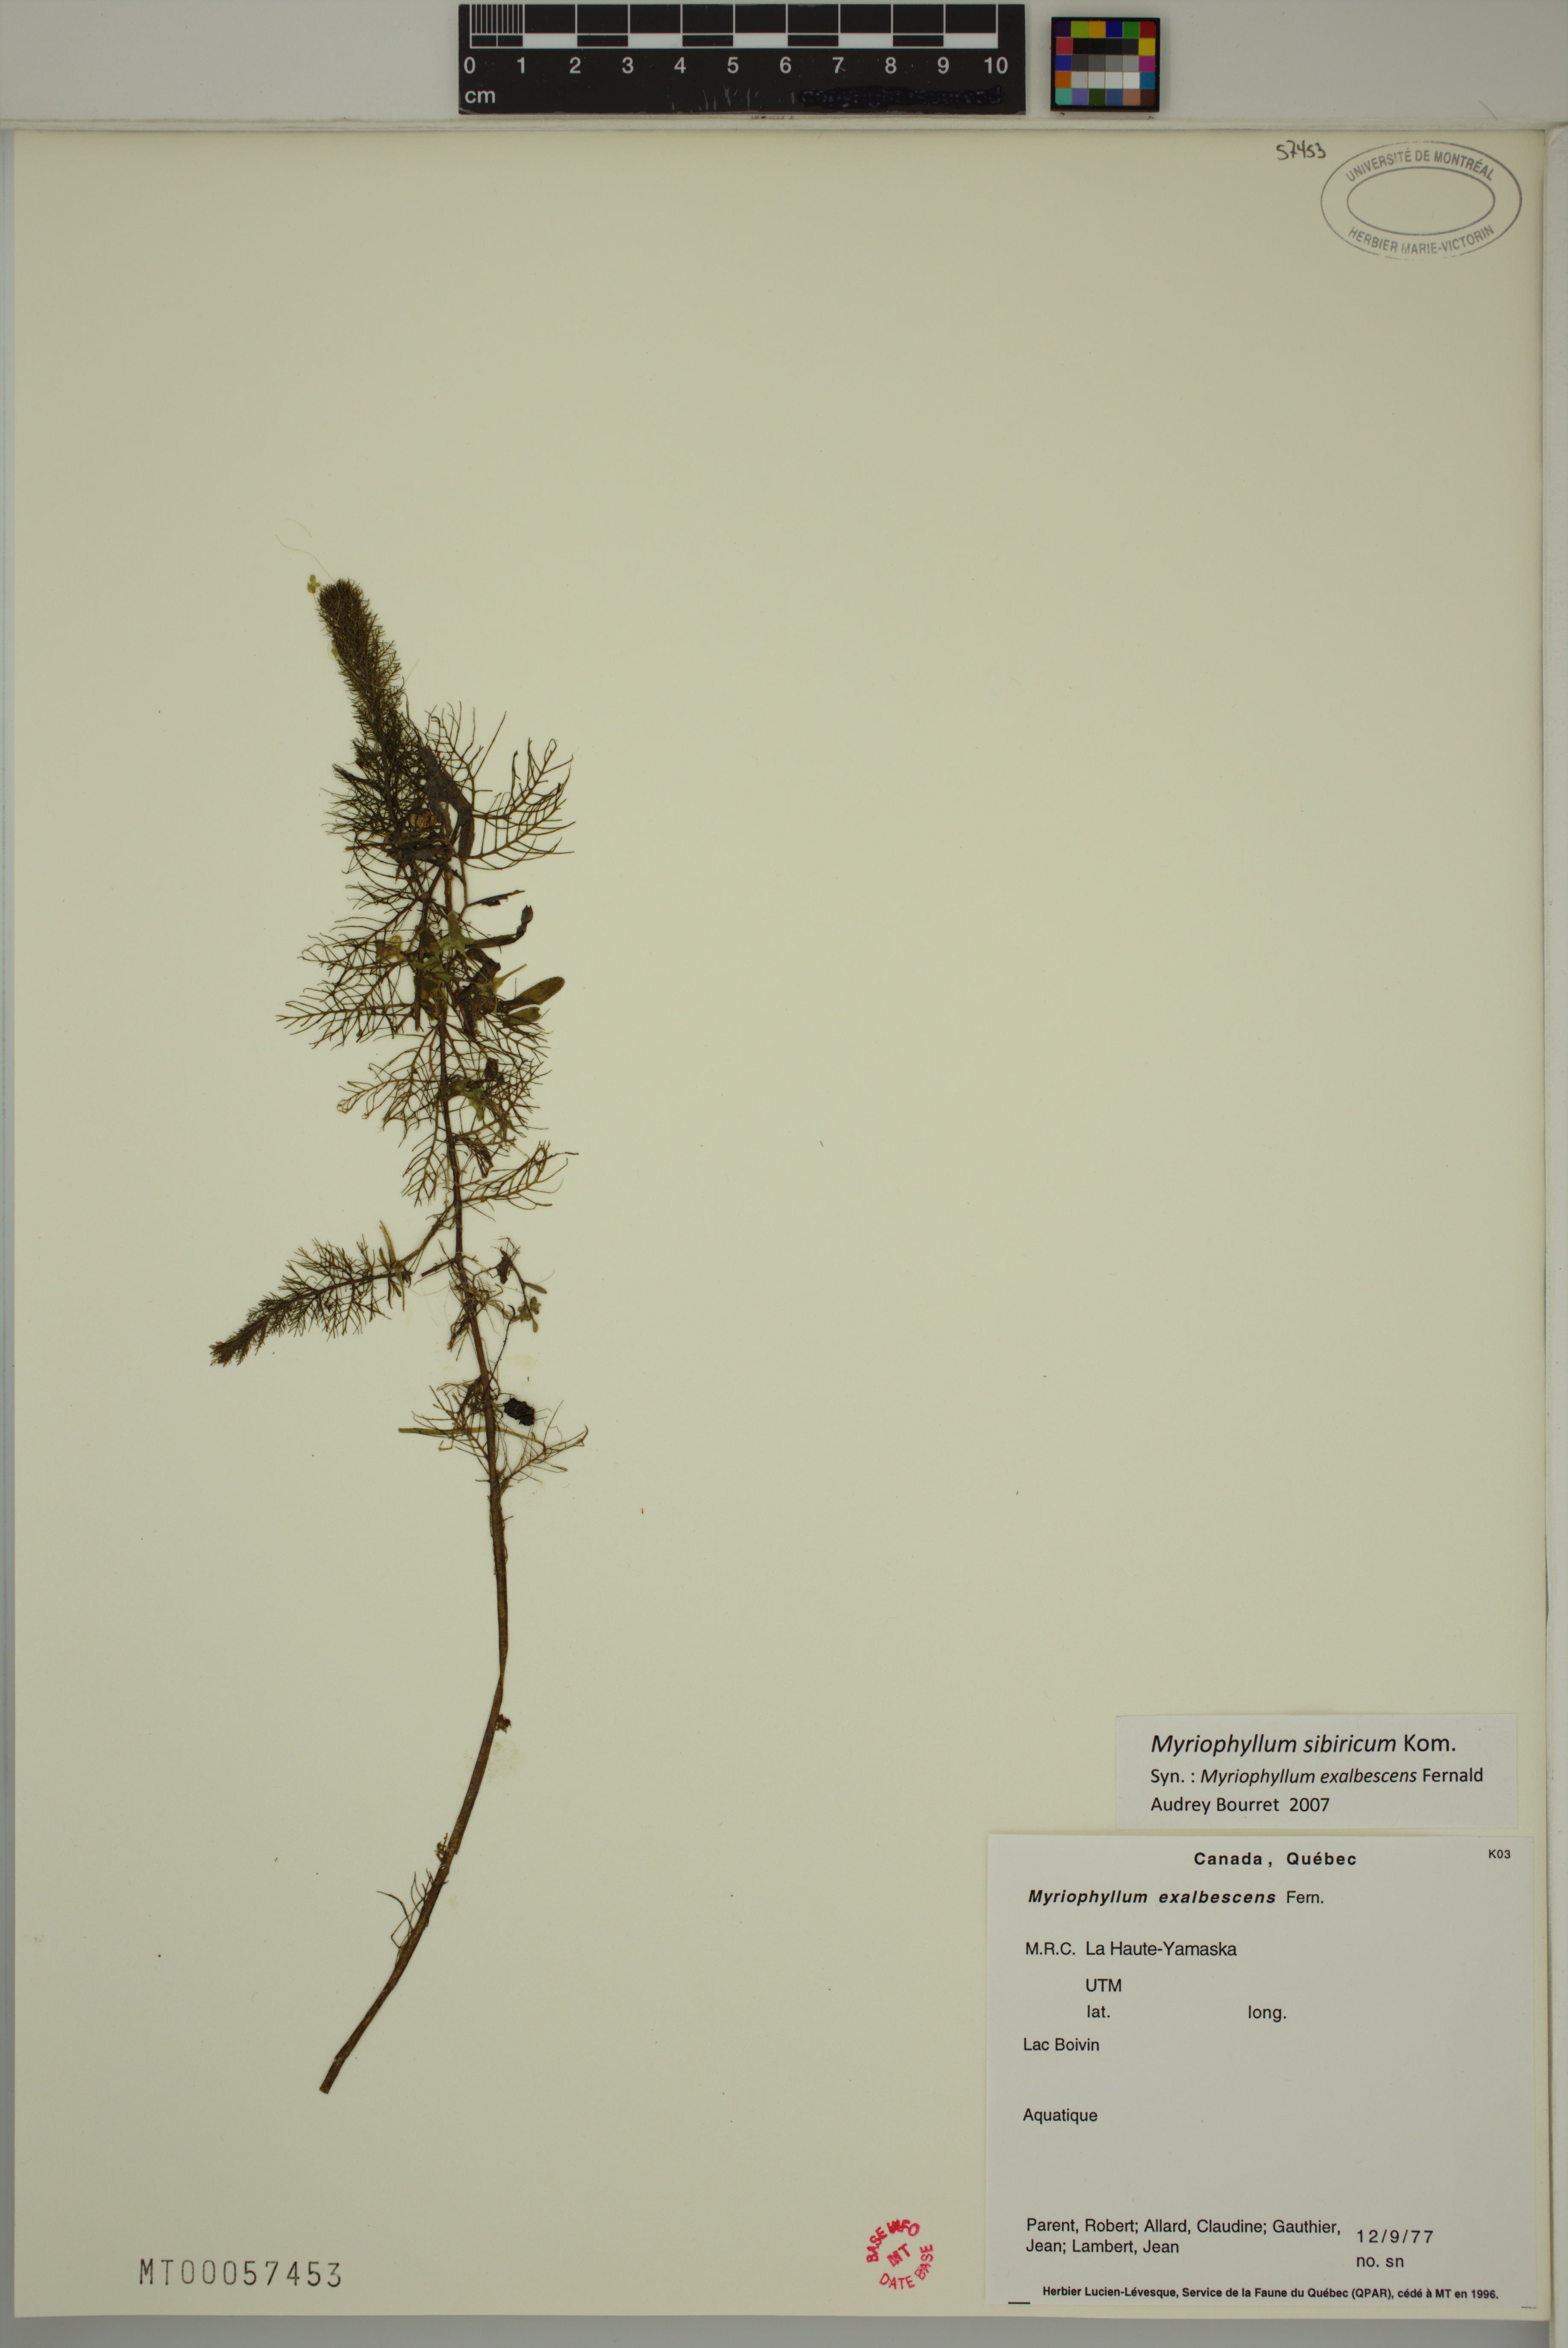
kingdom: Plantae
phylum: Tracheophyta
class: Magnoliopsida
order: Saxifragales
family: Haloragaceae
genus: Myriophyllum
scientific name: Myriophyllum sibiricum
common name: Siberian water-milfoil
